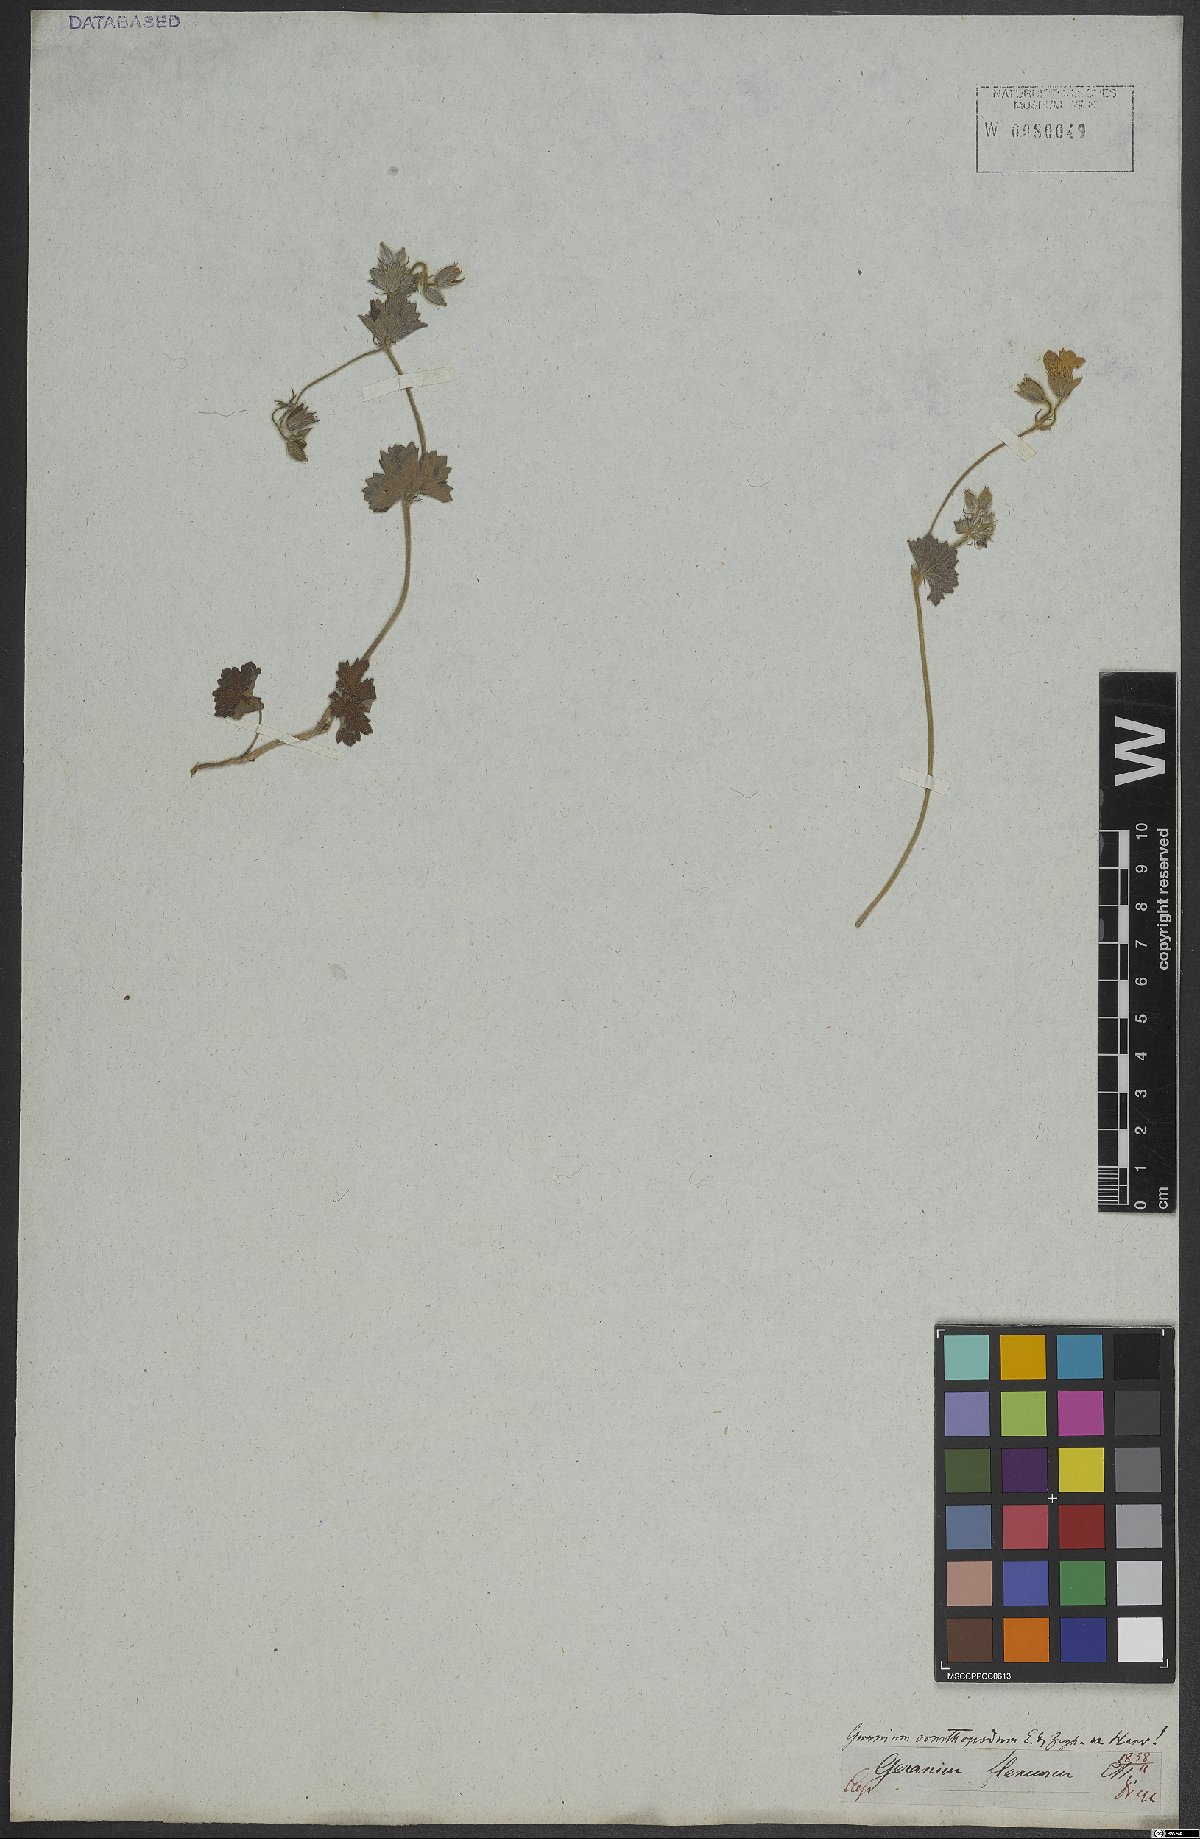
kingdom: Plantae
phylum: Tracheophyta
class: Magnoliopsida
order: Geraniales
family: Geraniaceae
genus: Geranium
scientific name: Geranium
